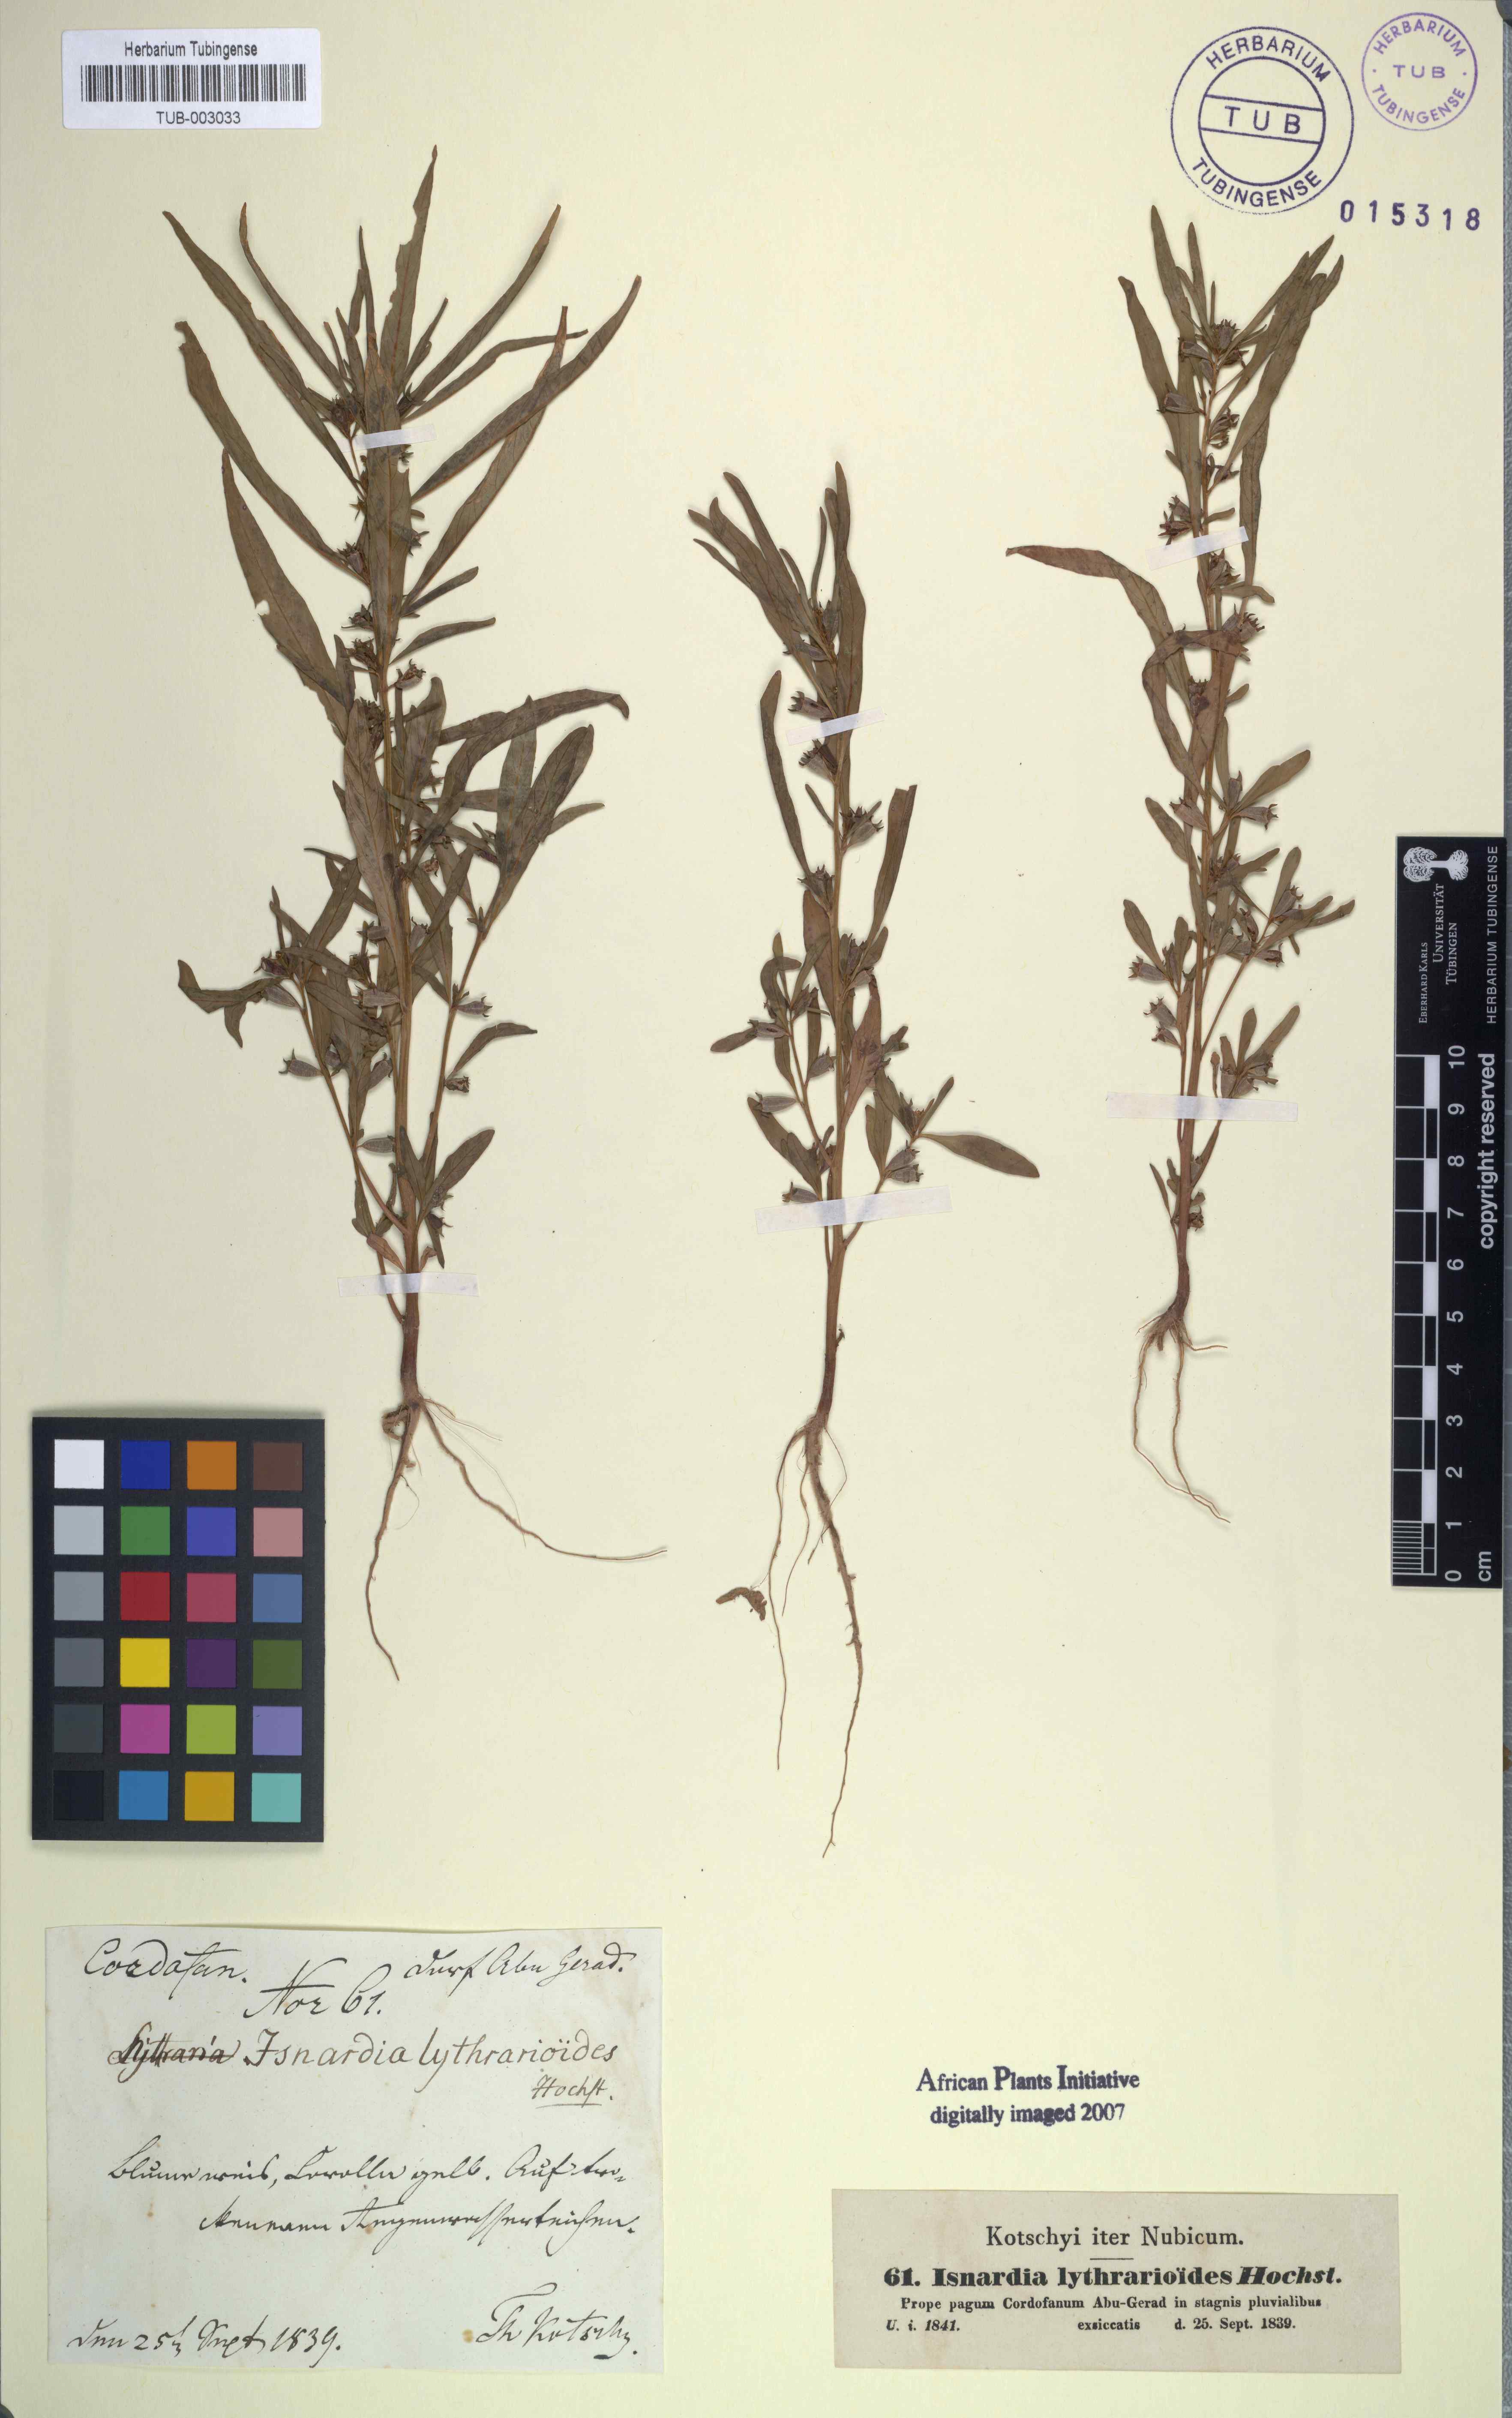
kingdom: Animalia
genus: Isnardia
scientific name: Isnardia
